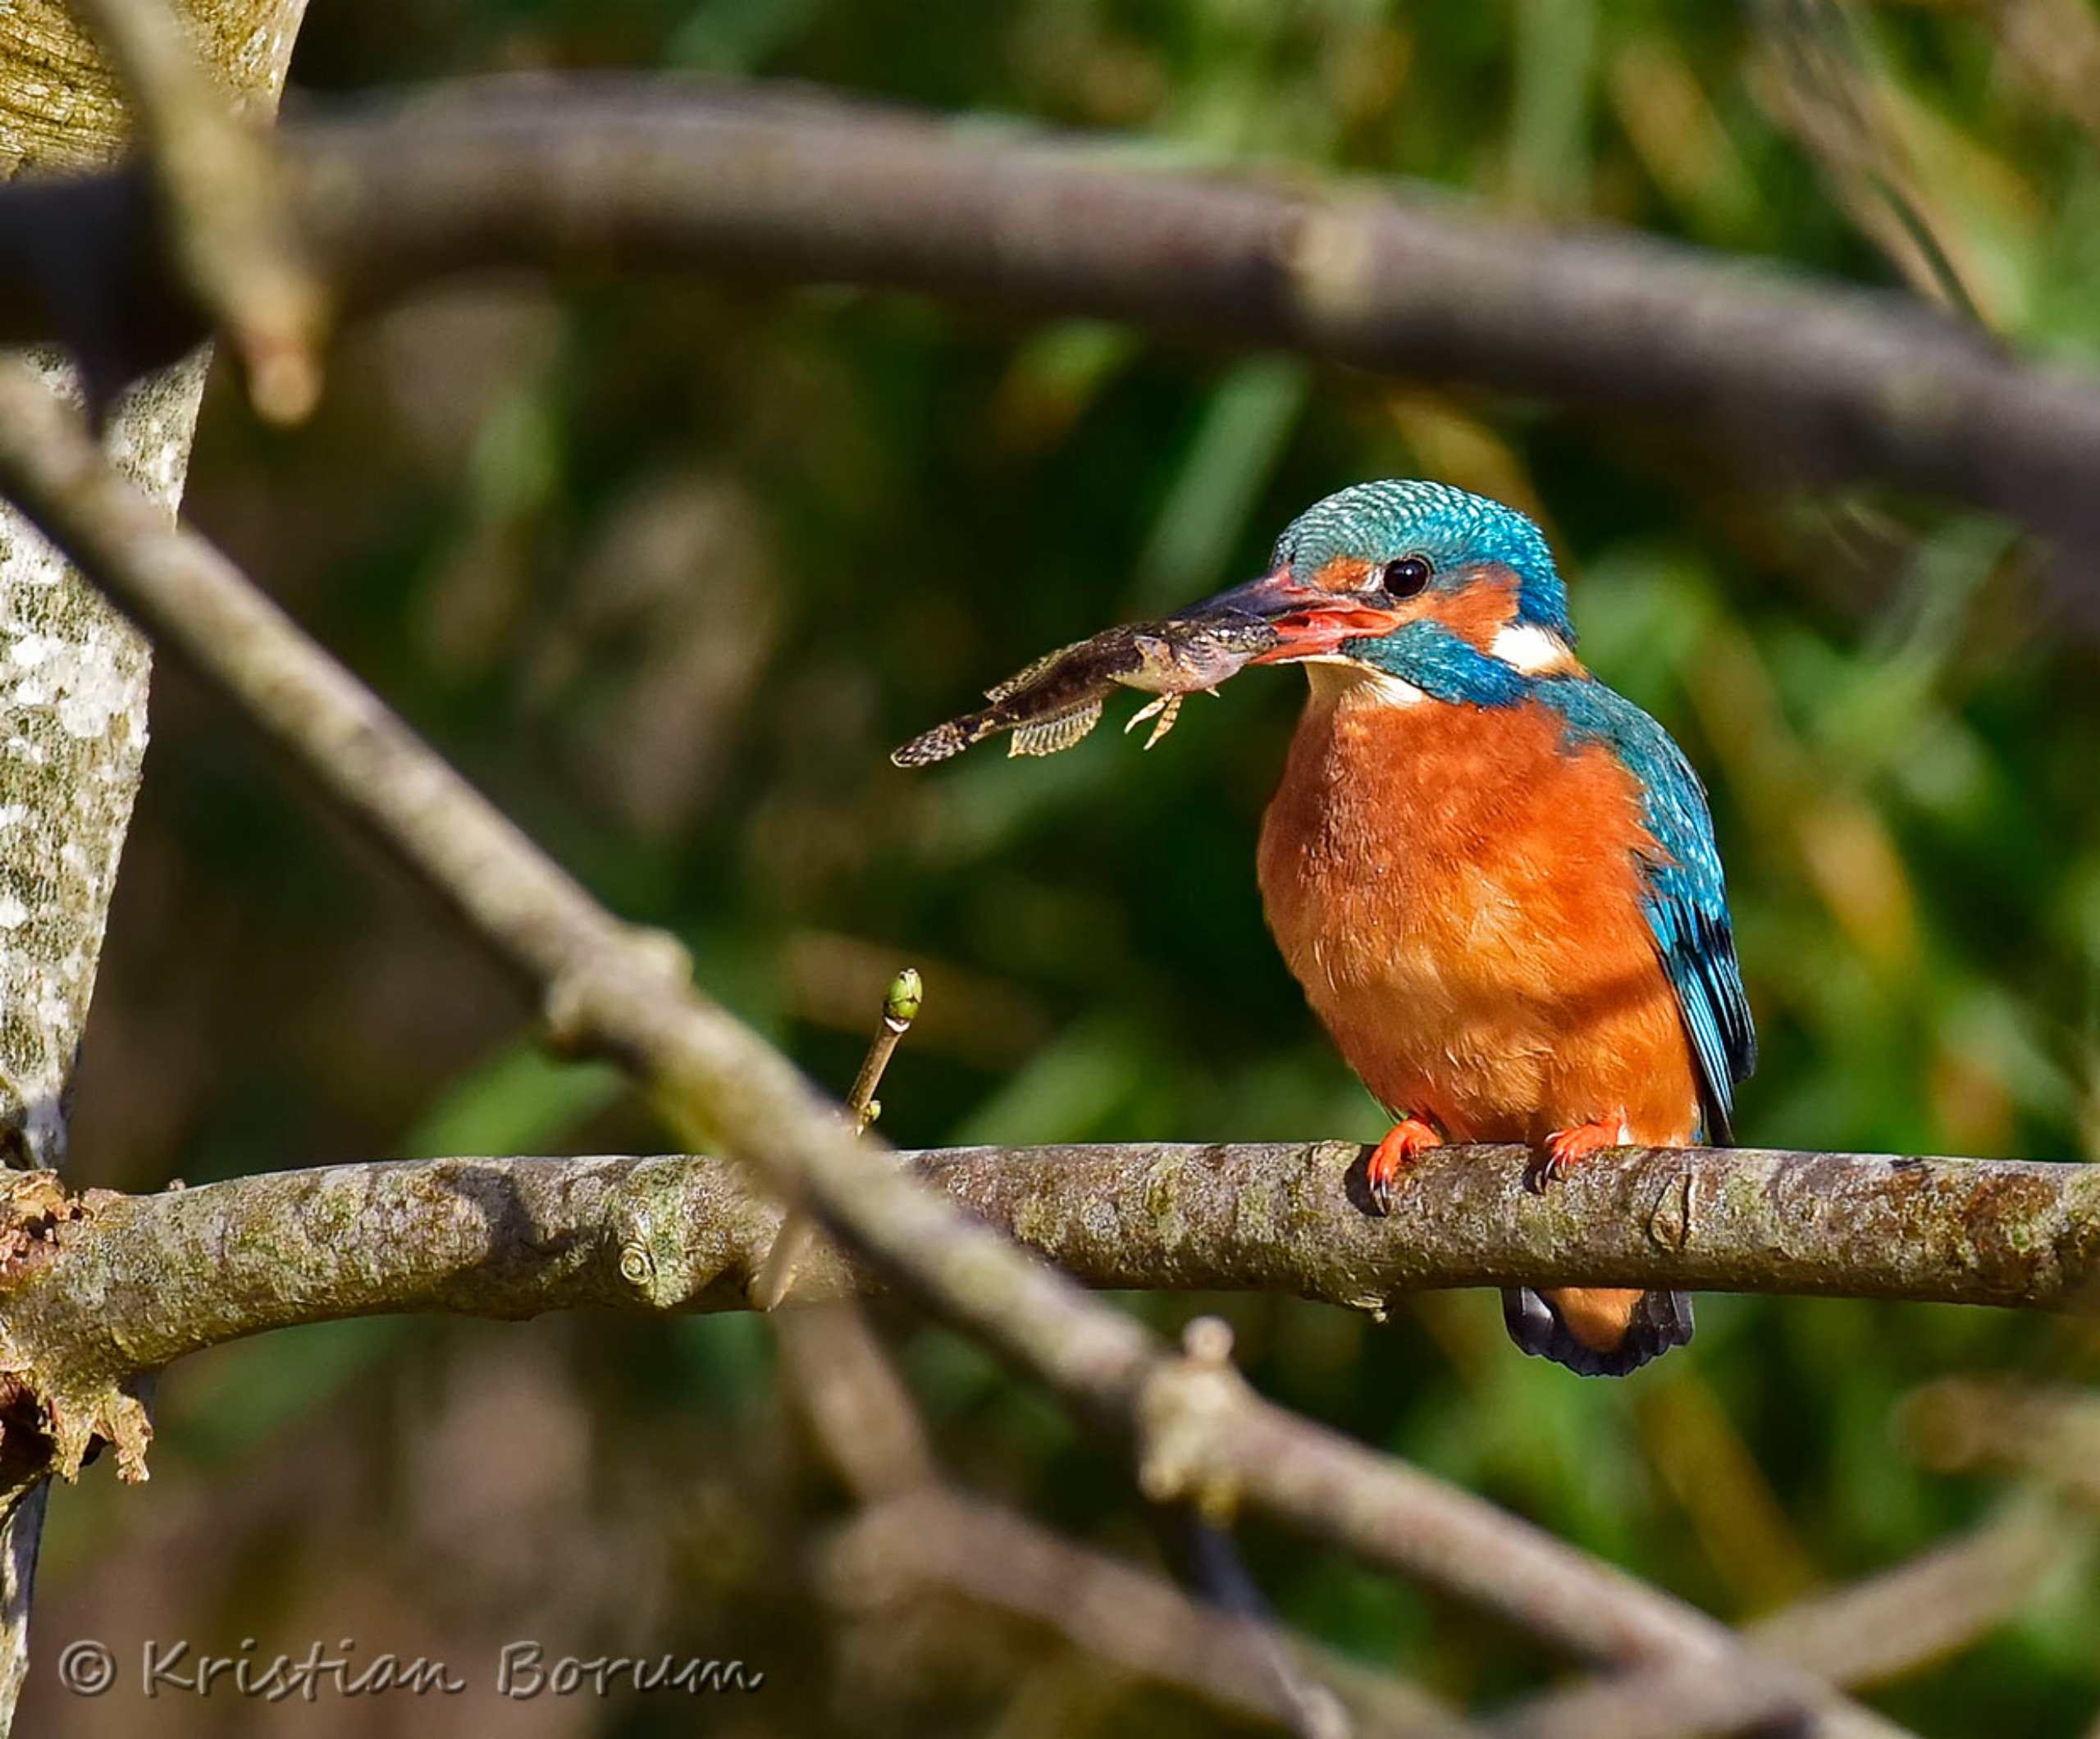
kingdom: Animalia
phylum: Chordata
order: Scorpaeniformes
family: Cottidae
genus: Cottus
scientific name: Cottus poecilopus
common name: Finnestribet ferskvandsulk
